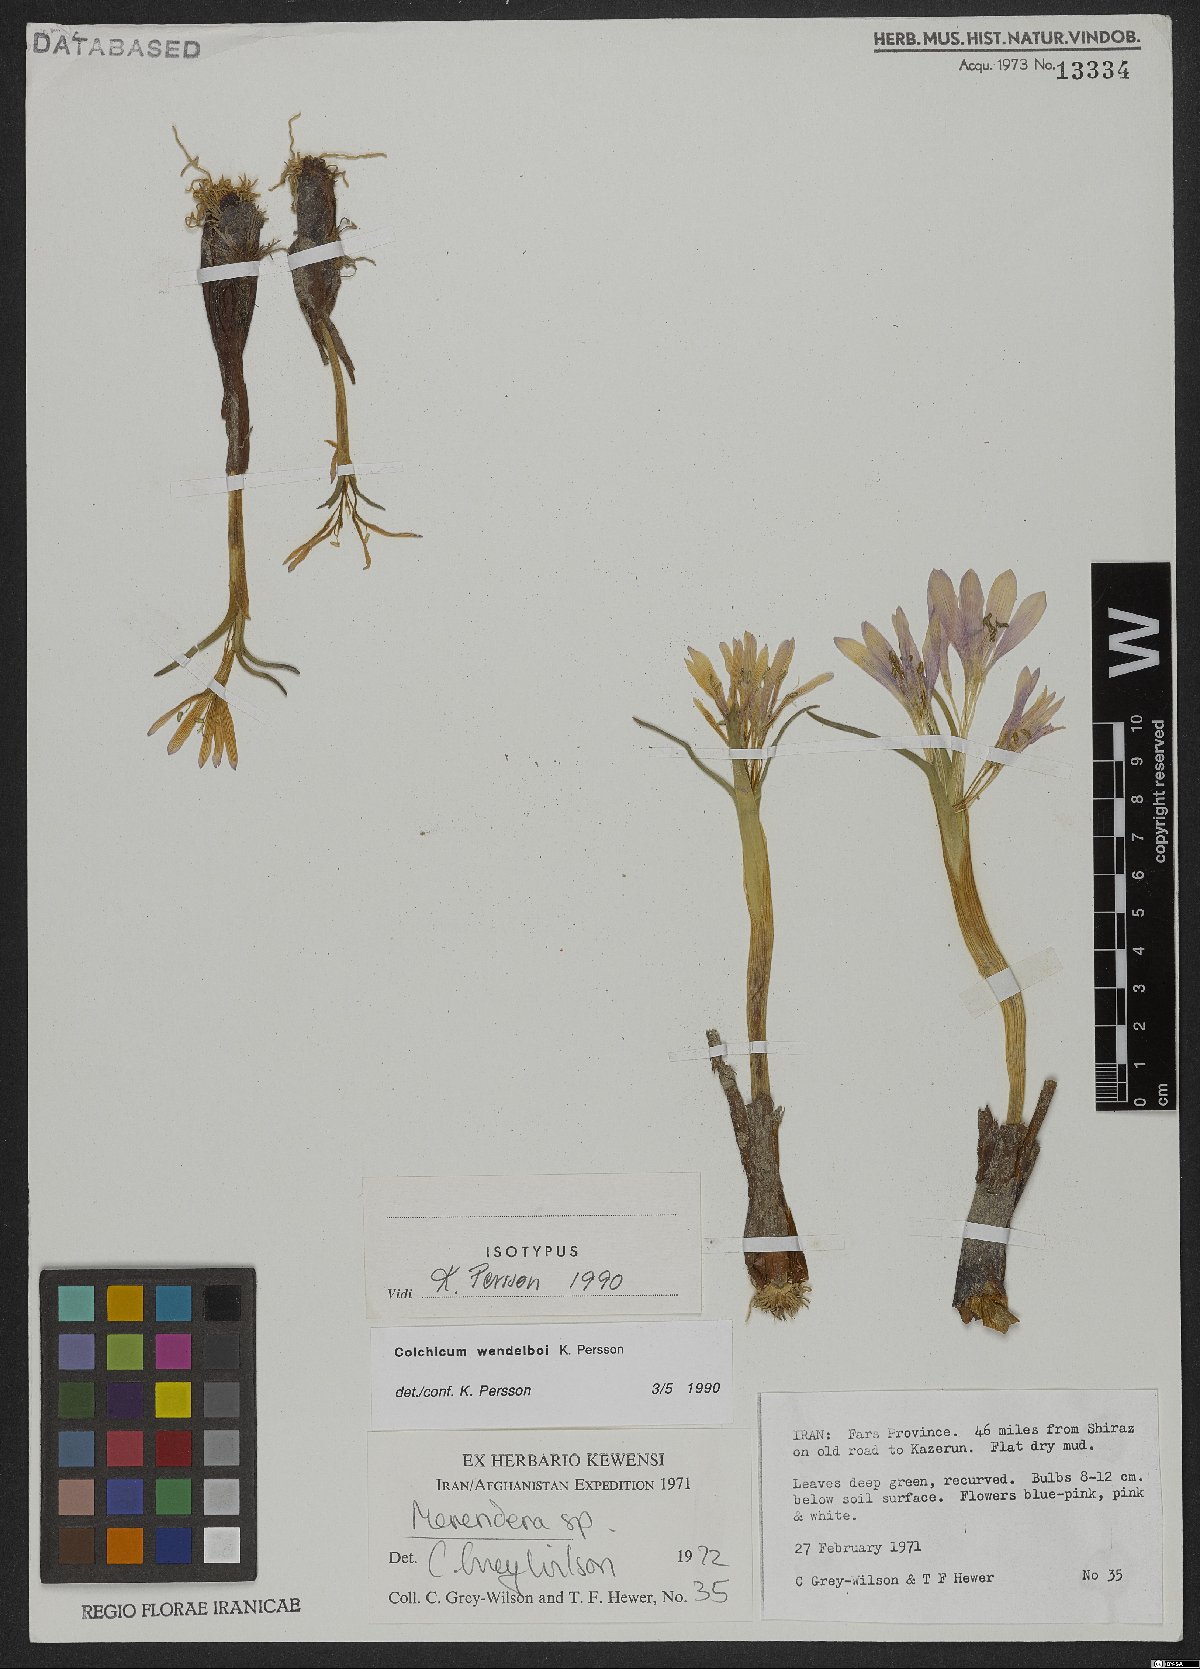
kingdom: Plantae
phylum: Tracheophyta
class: Liliopsida
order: Liliales
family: Colchicaceae
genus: Colchicum
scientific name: Colchicum wendelboi
